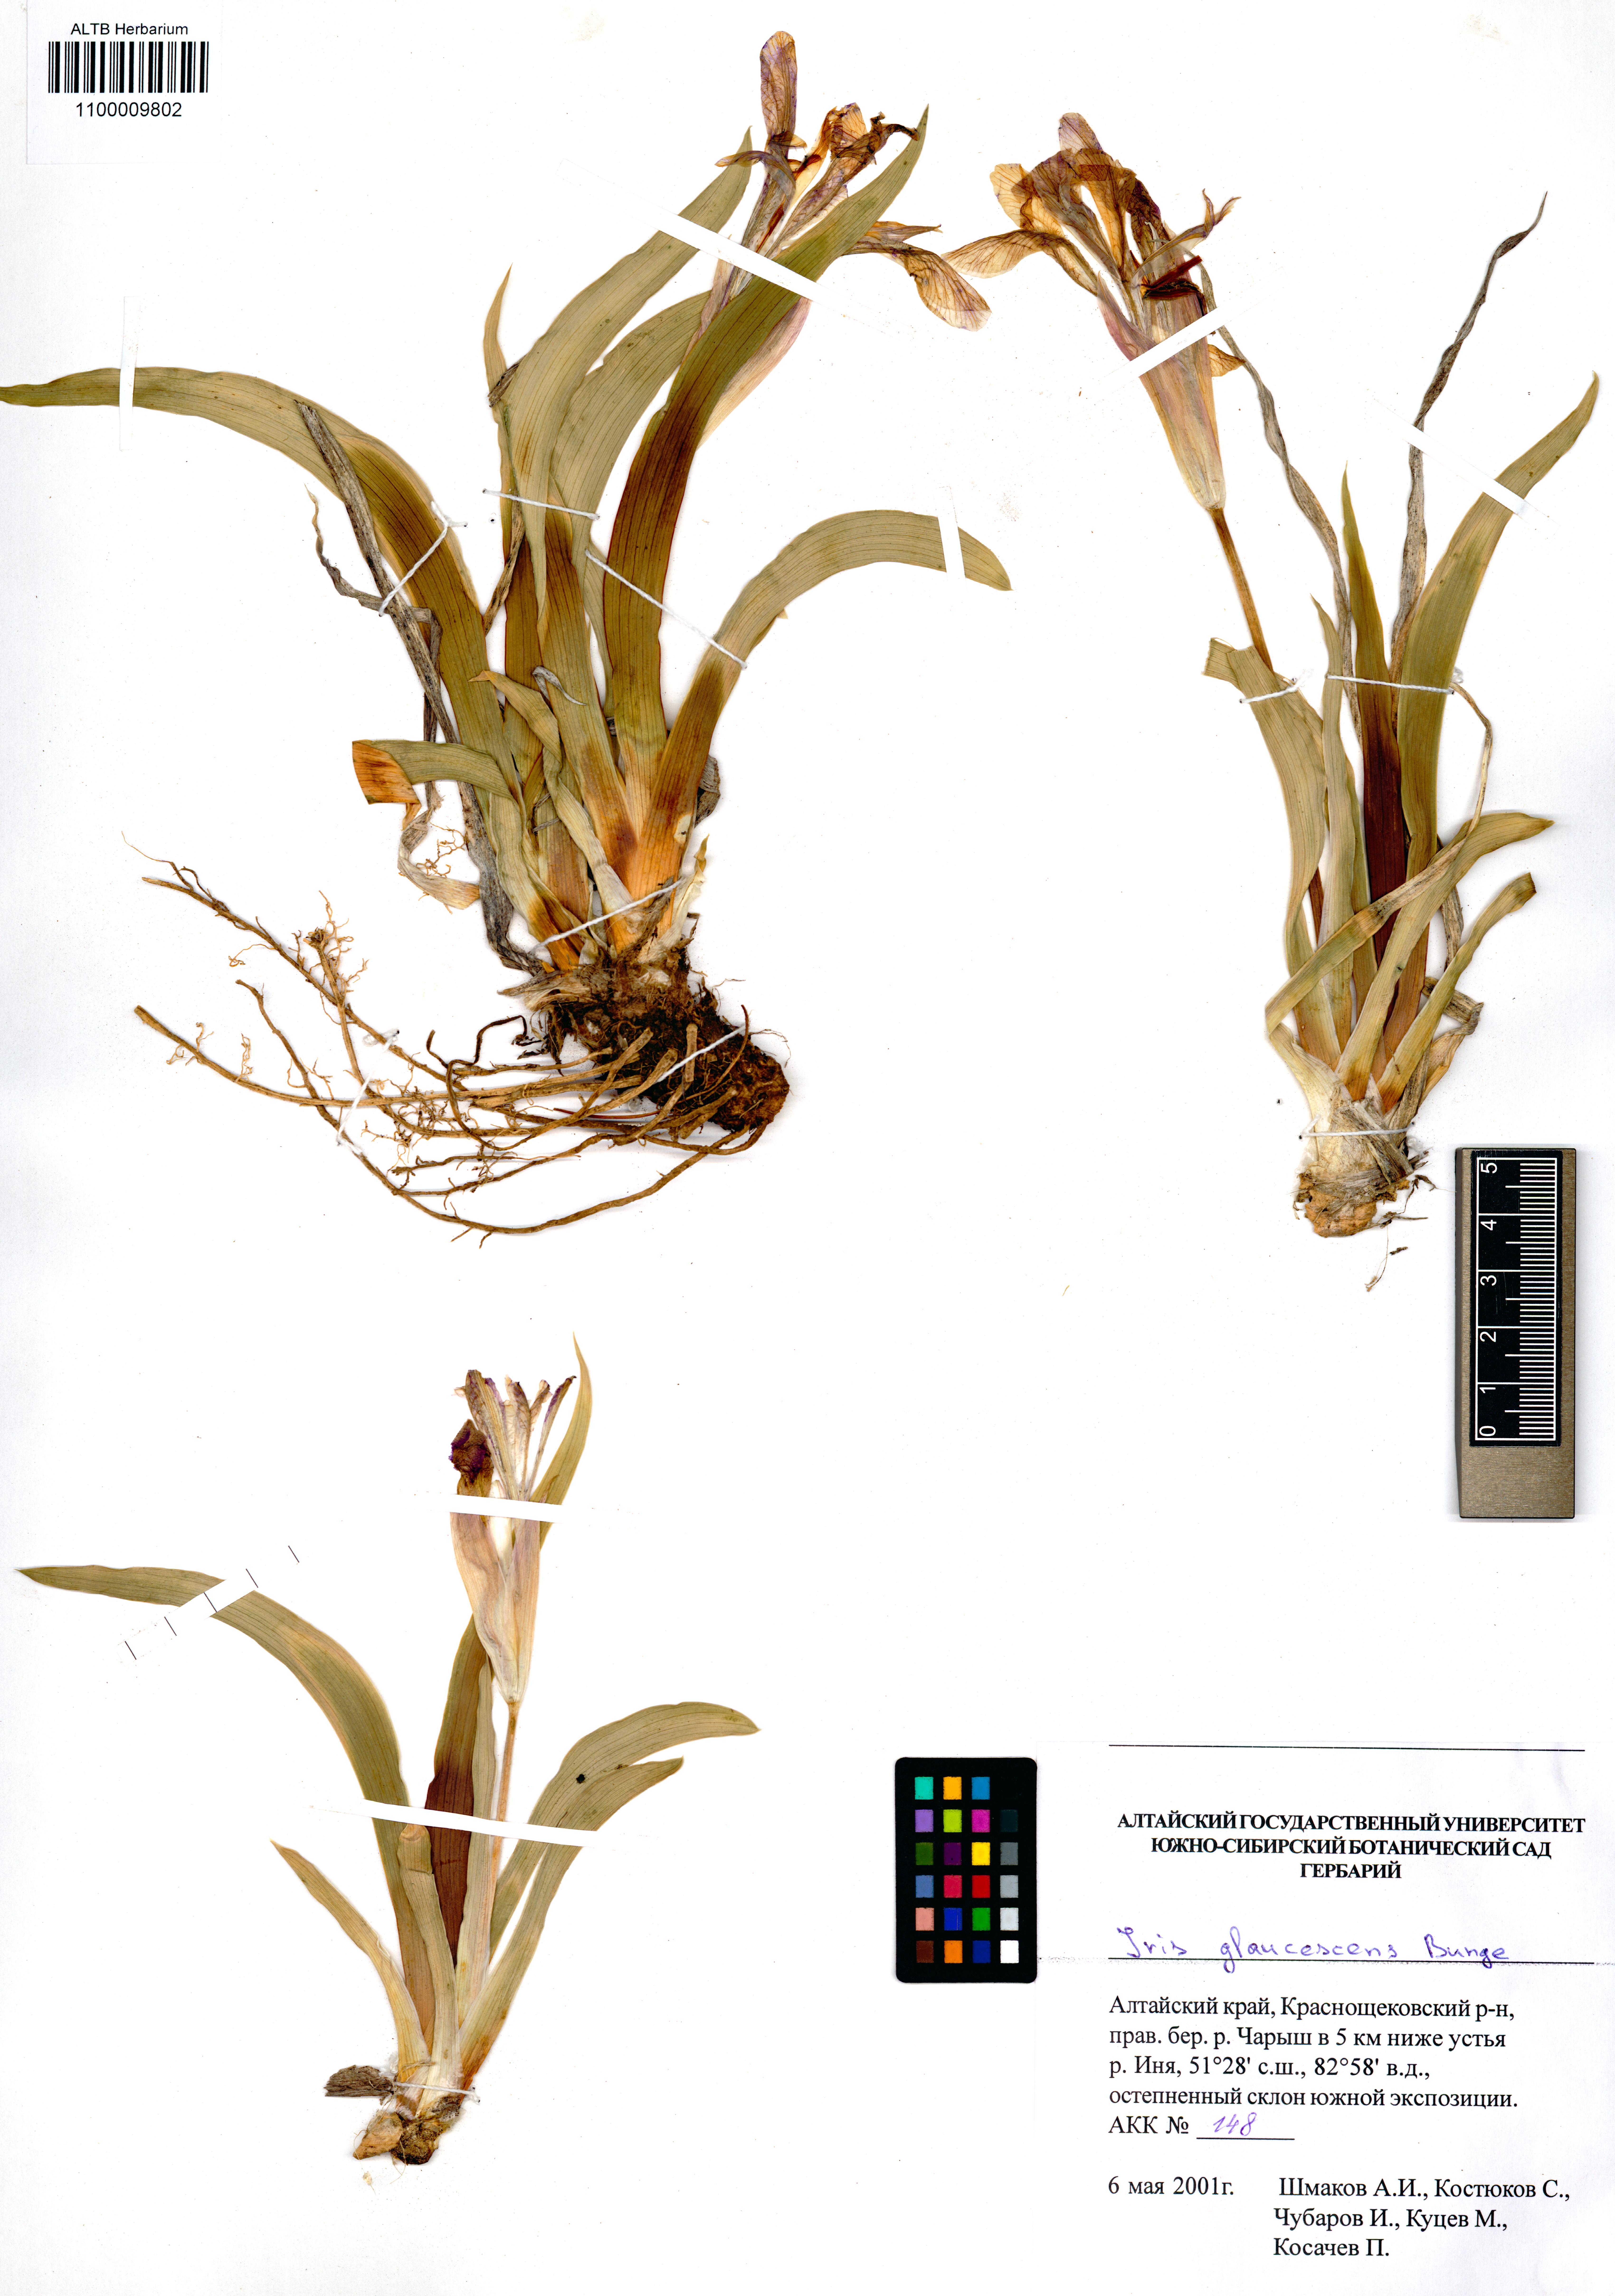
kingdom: Plantae
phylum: Tracheophyta
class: Liliopsida
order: Asparagales
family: Iridaceae
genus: Iris
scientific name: Iris glaucescens
